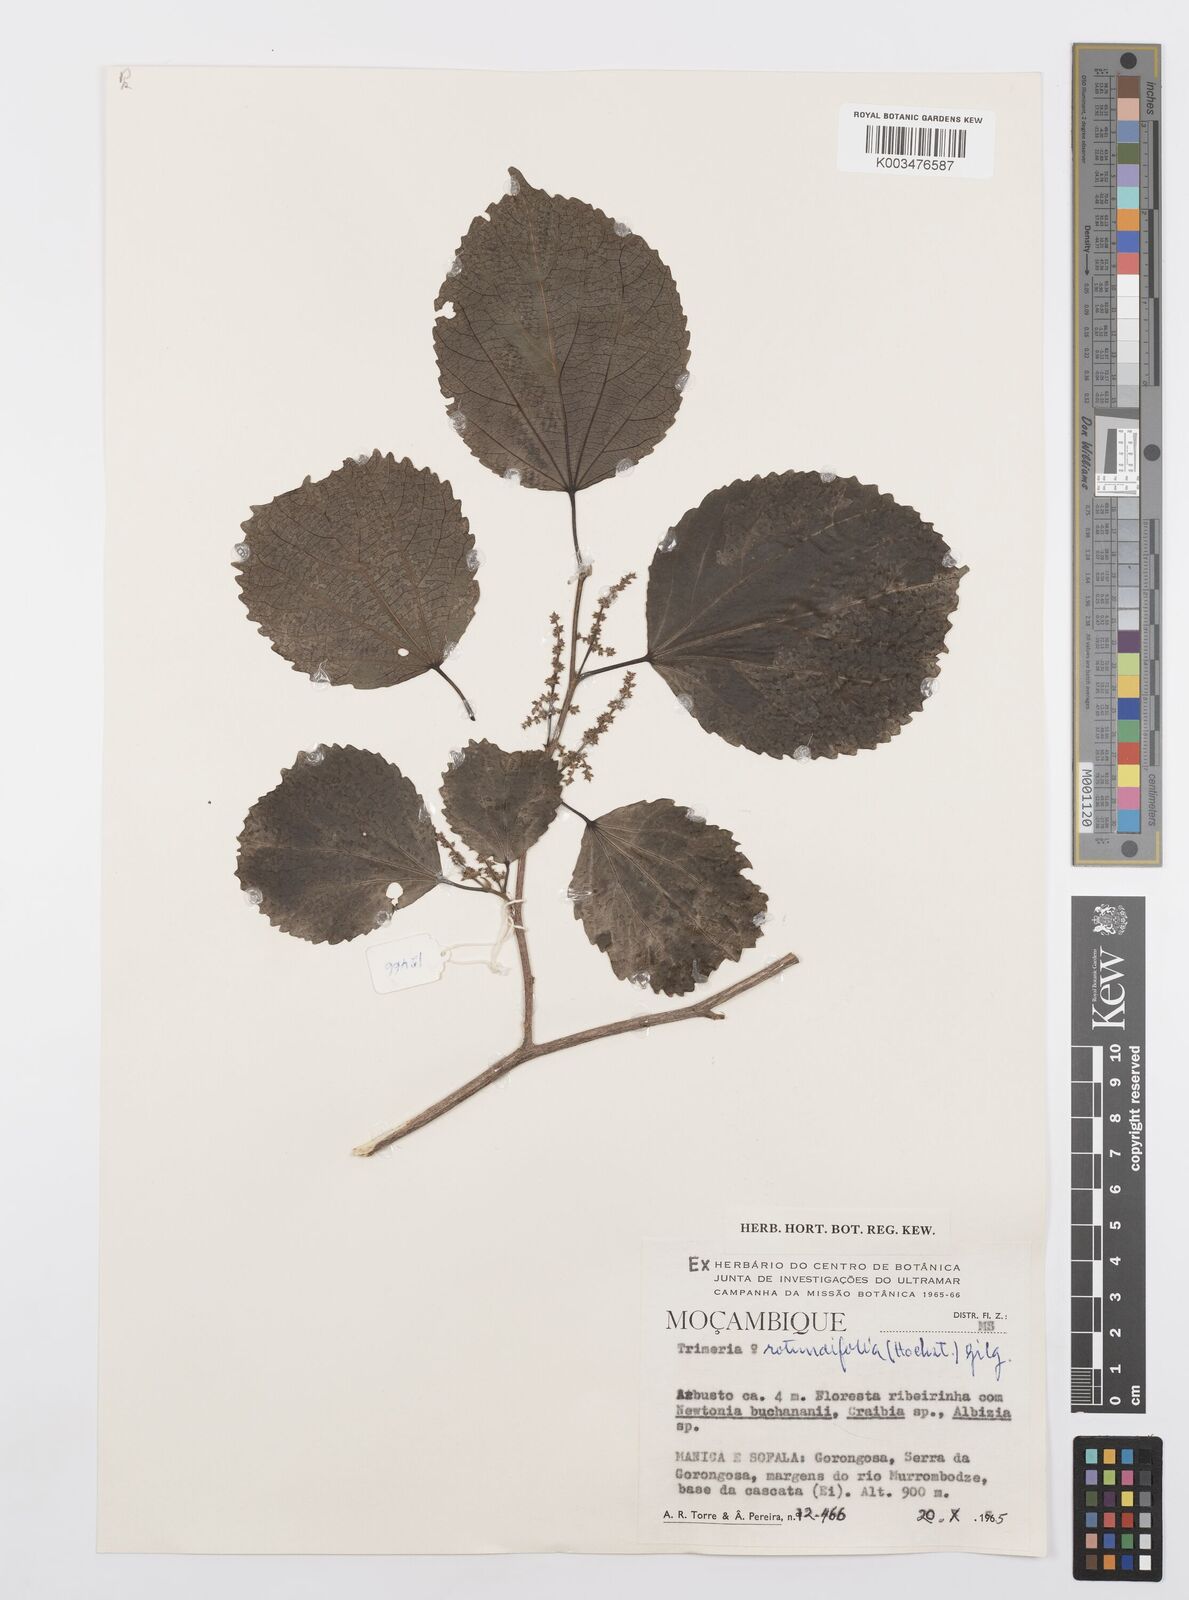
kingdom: Plantae
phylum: Tracheophyta
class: Magnoliopsida
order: Malpighiales
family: Salicaceae
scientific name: Salicaceae
